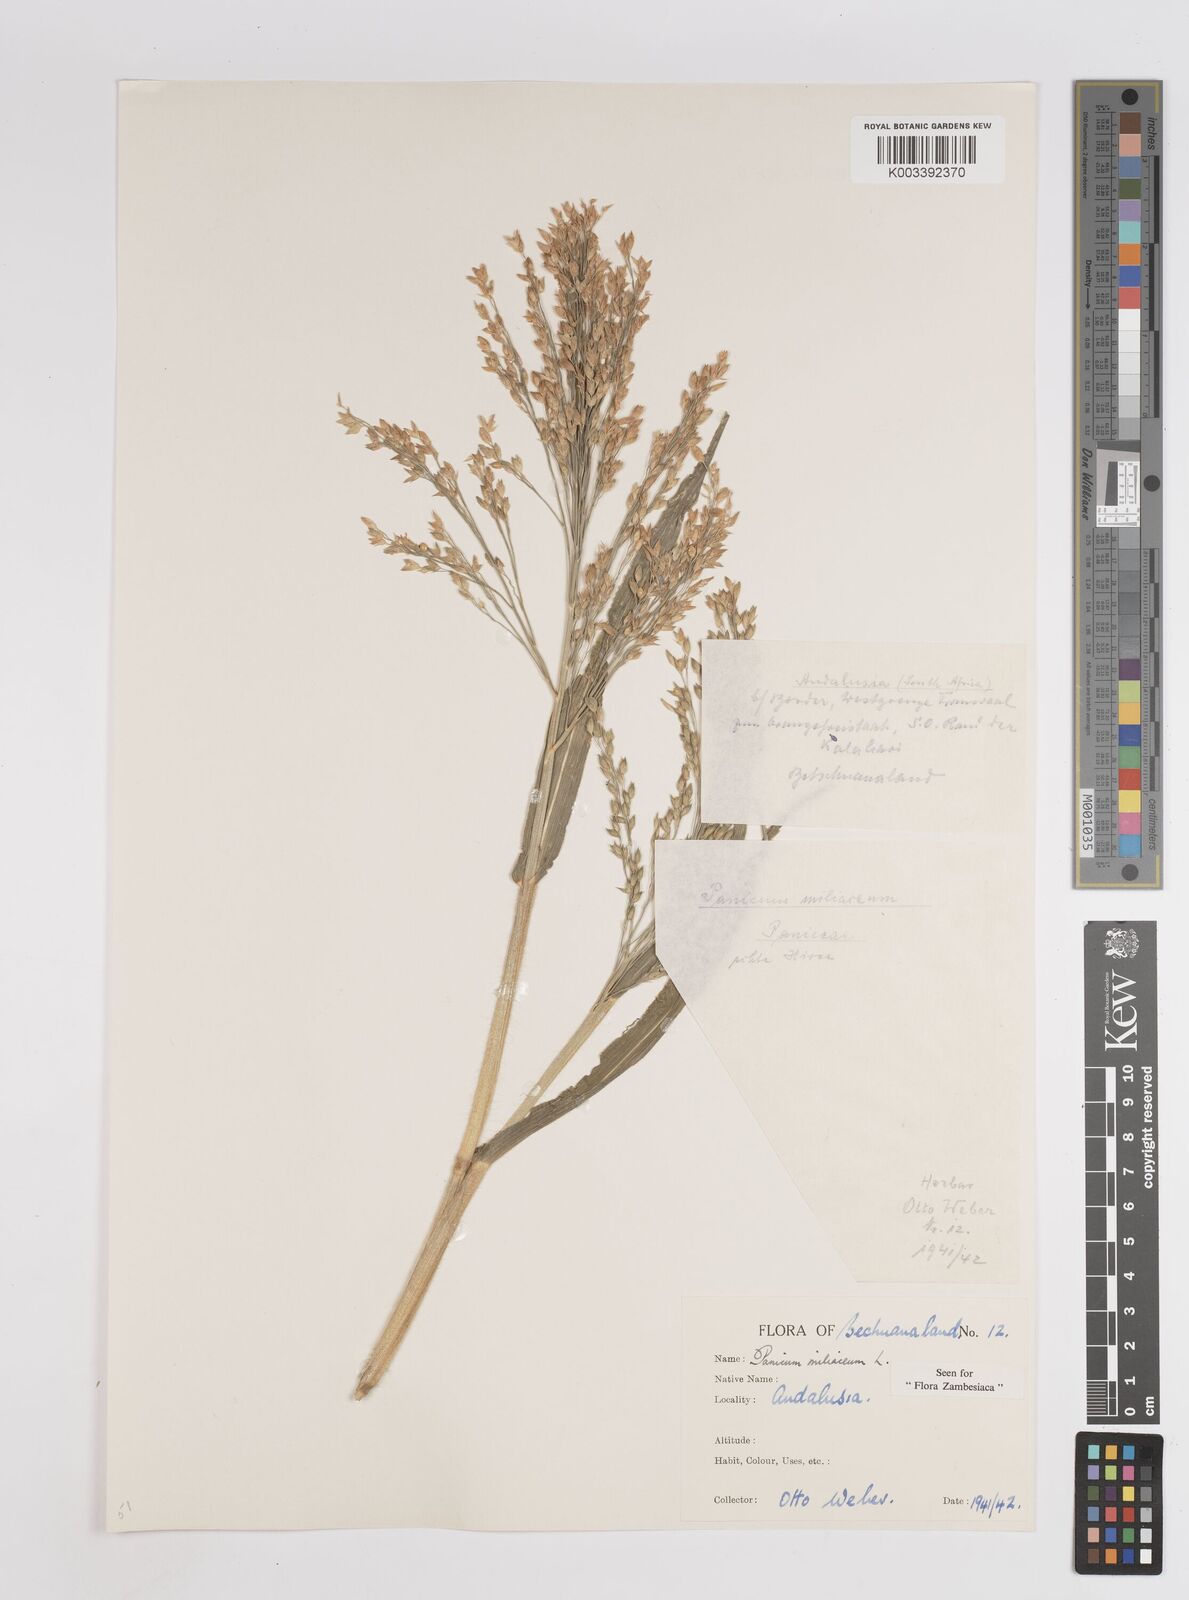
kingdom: Plantae
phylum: Tracheophyta
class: Liliopsida
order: Poales
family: Poaceae
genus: Panicum
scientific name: Panicum miliaceum
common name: Common millet
